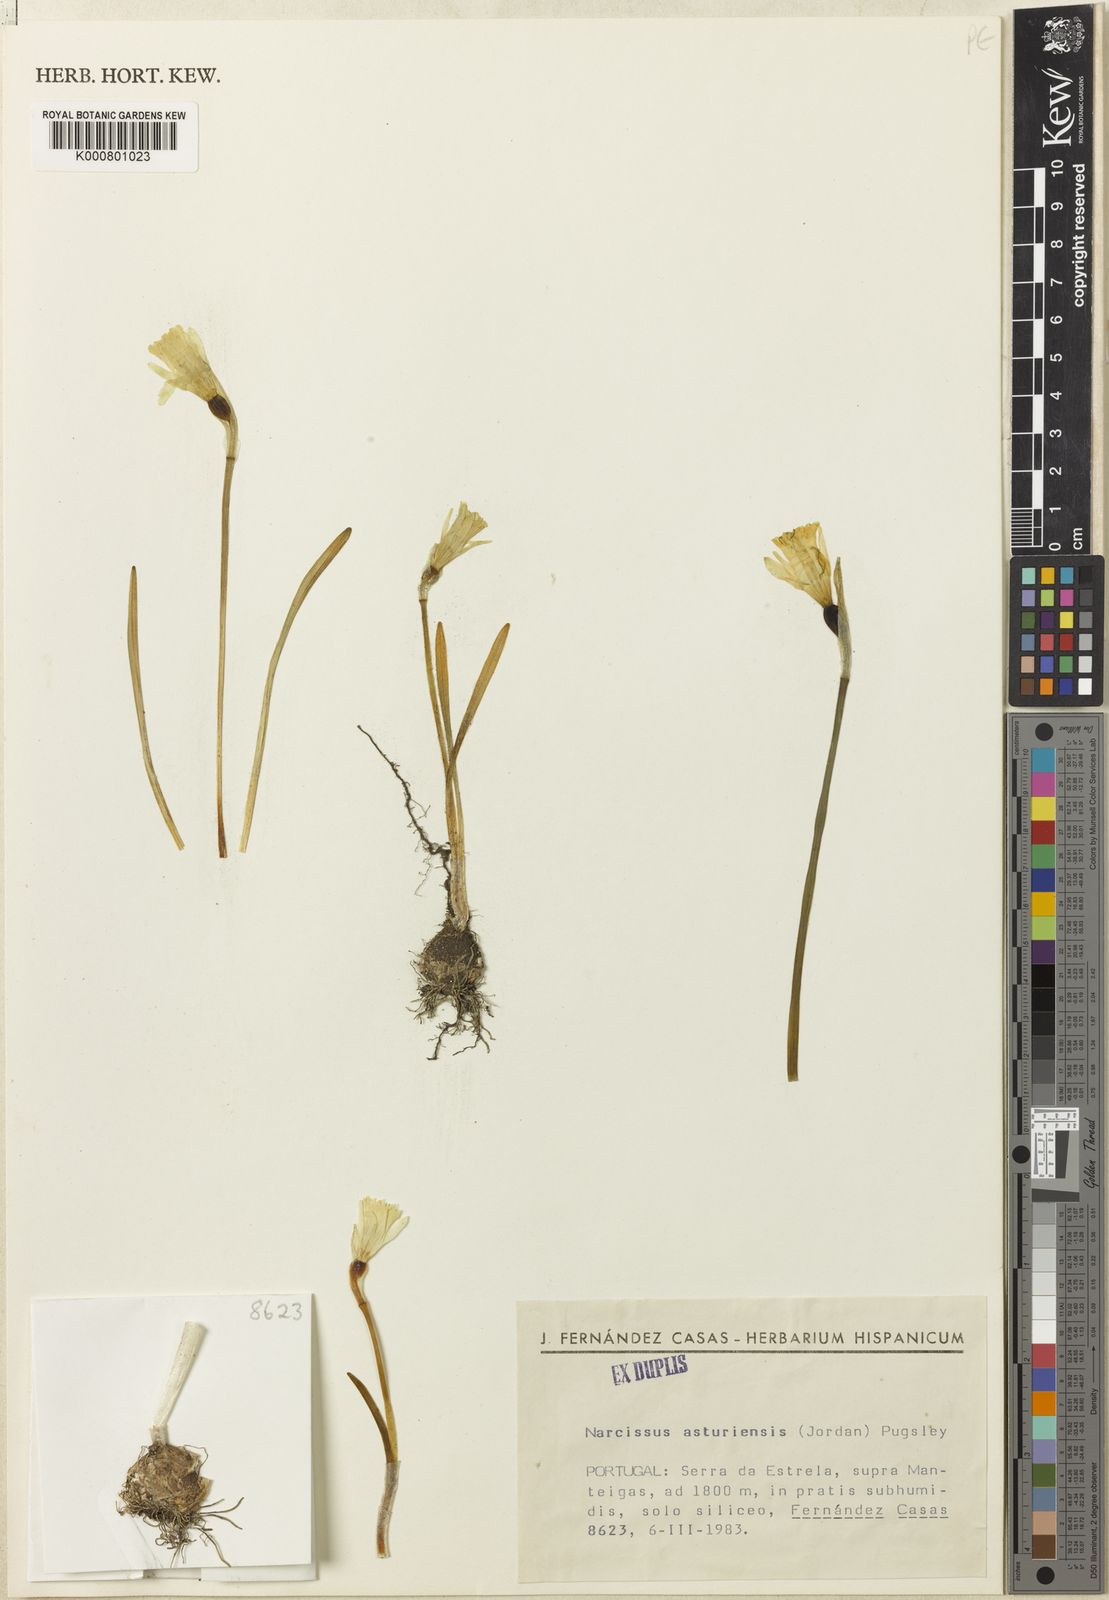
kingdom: Plantae
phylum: Tracheophyta
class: Liliopsida
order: Asparagales
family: Amaryllidaceae
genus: Narcissus
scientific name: Narcissus cuneiflorus
